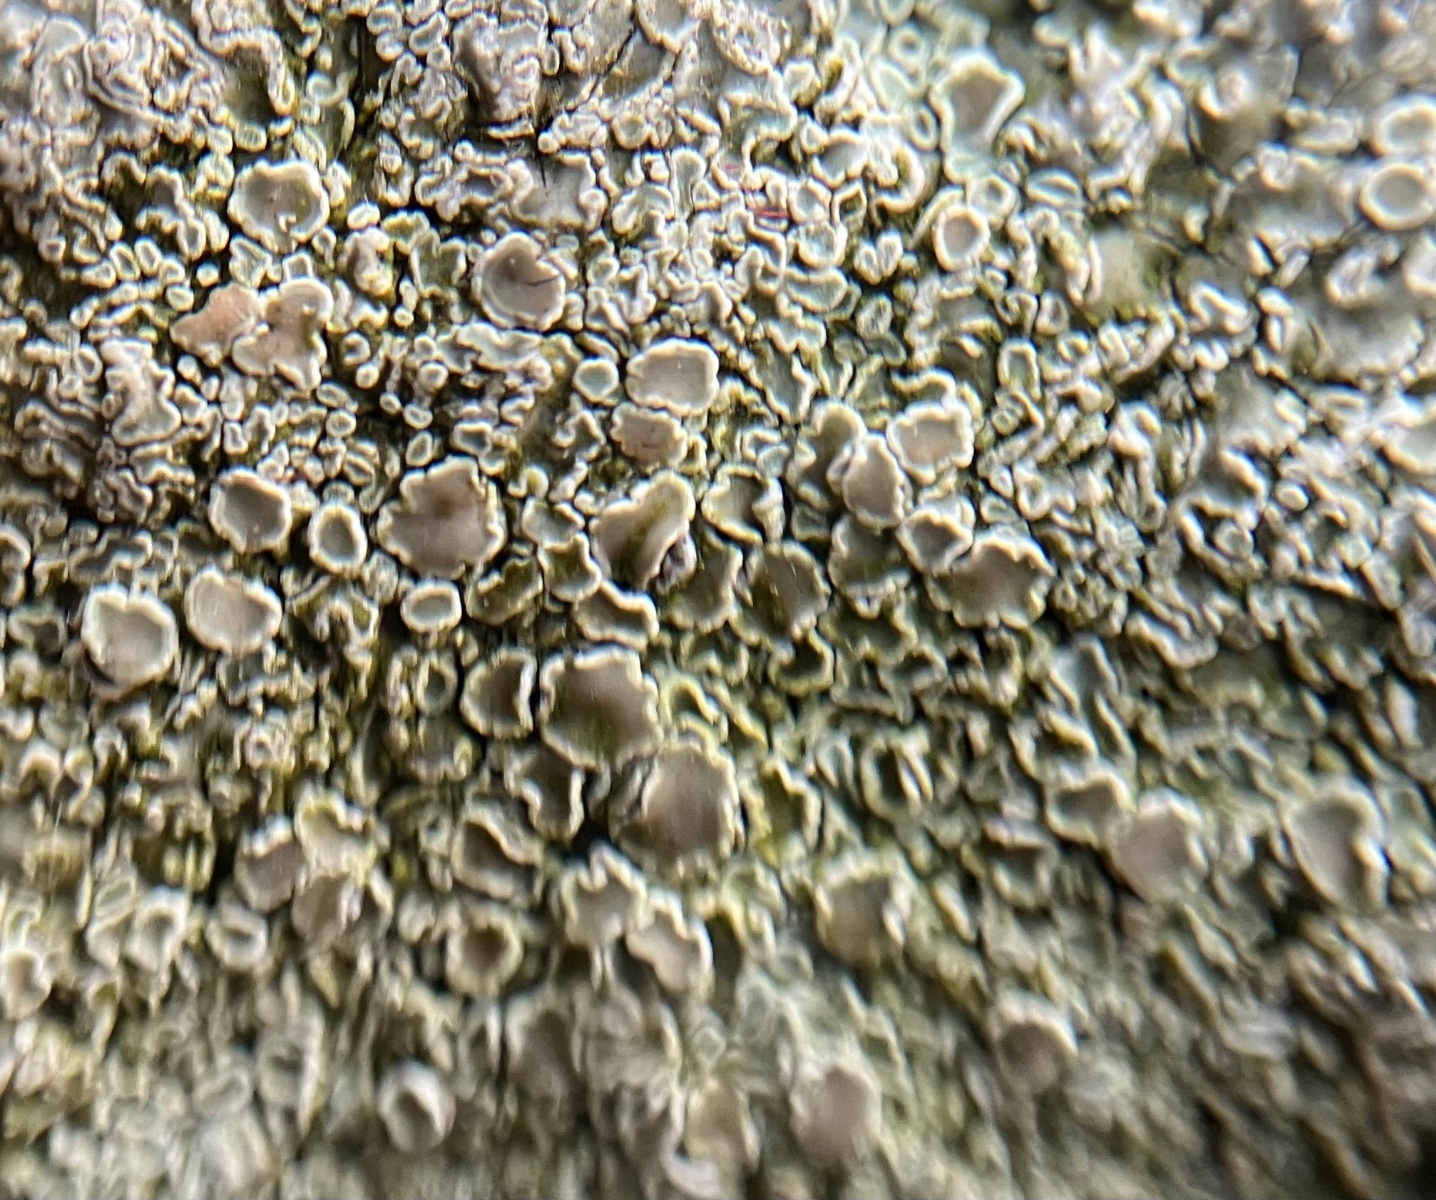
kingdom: Fungi
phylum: Ascomycota
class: Lecanoromycetes
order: Lecanorales
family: Lecanoraceae
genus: Protoparmeliopsis
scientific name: Protoparmeliopsis muralis
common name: randfliget kantskivelav
